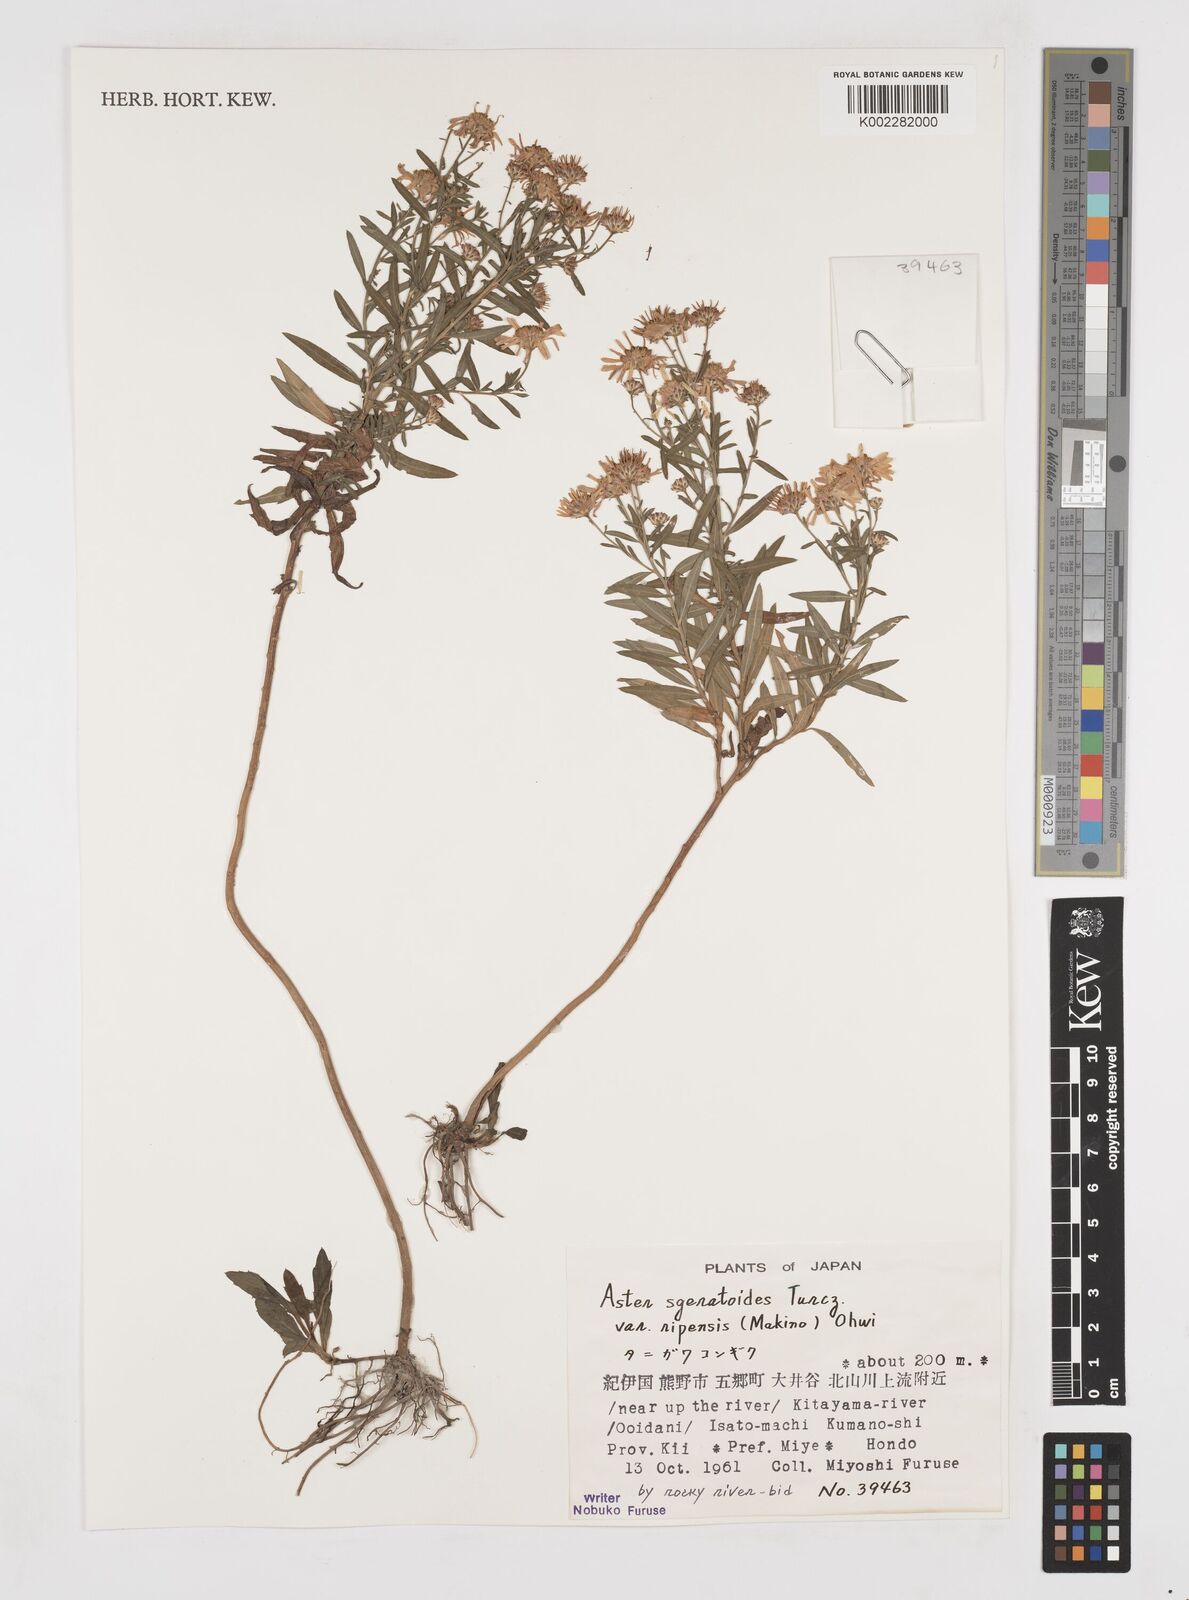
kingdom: Plantae
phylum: Tracheophyta
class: Magnoliopsida
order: Asterales
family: Asteraceae
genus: Aster
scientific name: Aster trinervius
